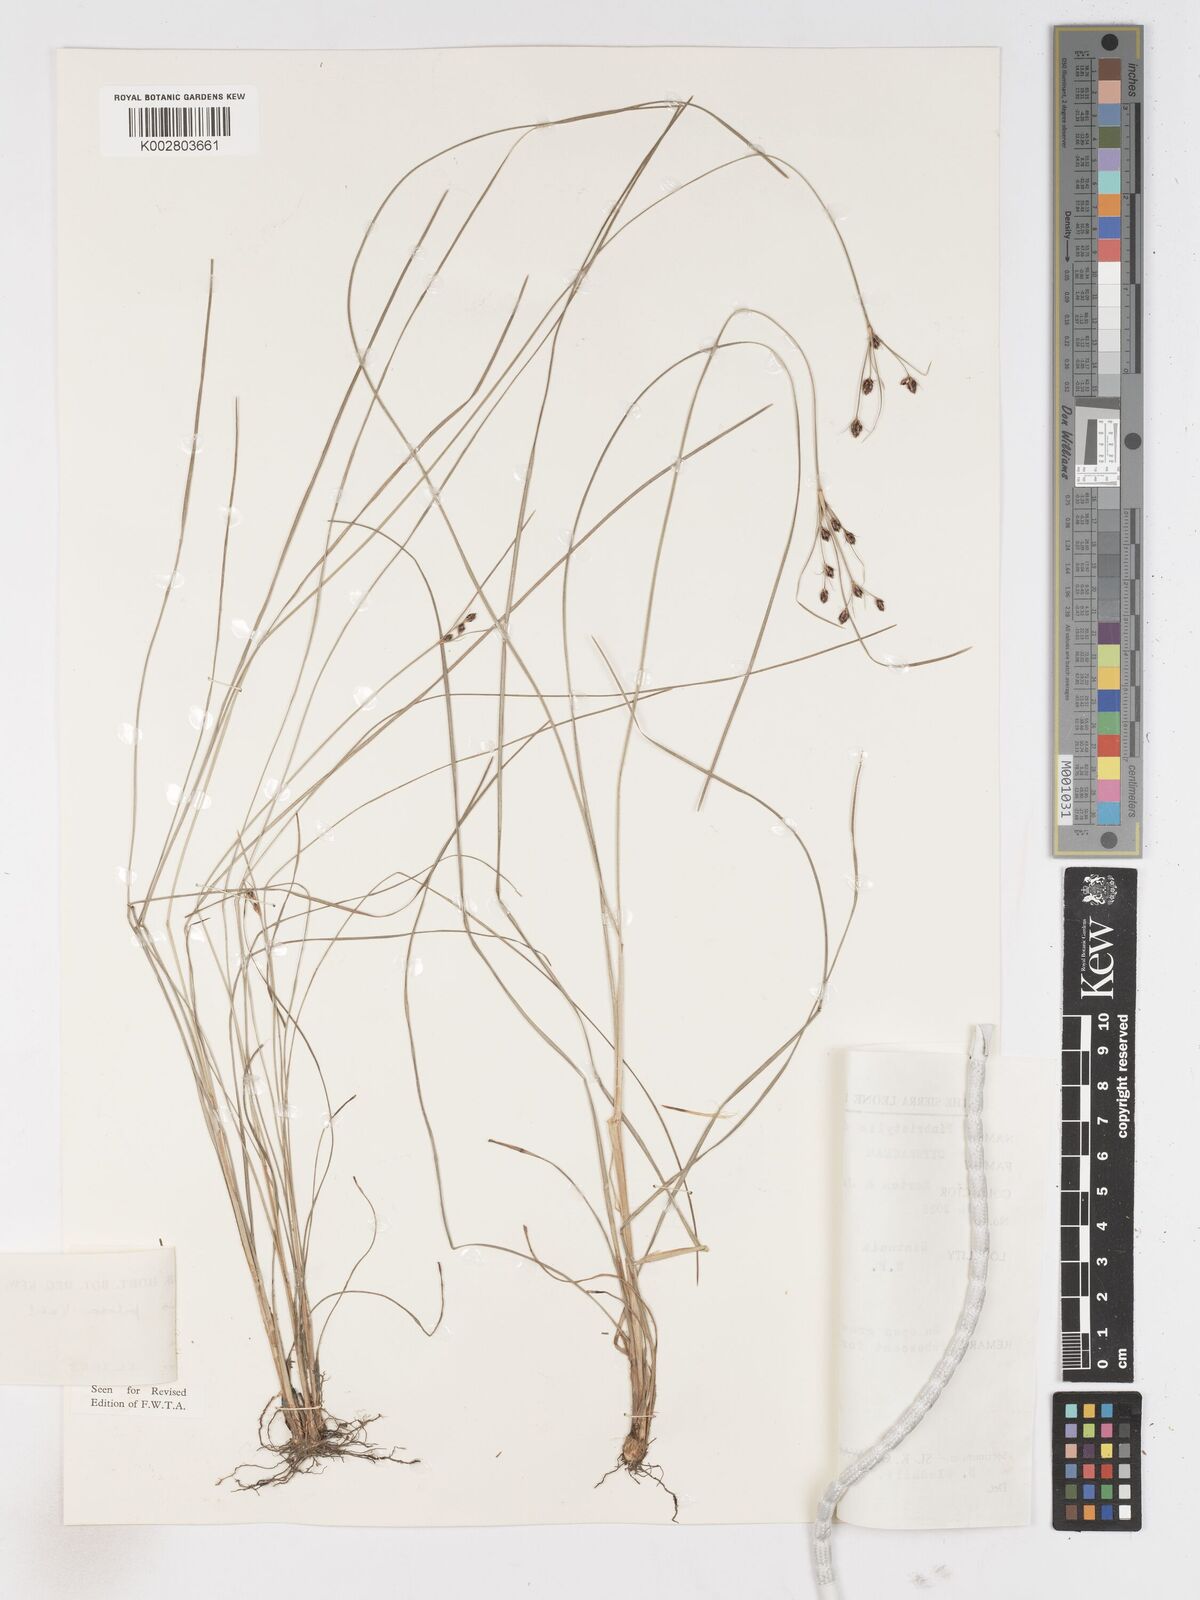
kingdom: Plantae
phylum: Tracheophyta
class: Liliopsida
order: Poales
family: Cyperaceae
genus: Fimbristylis
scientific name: Fimbristylis pilosa
